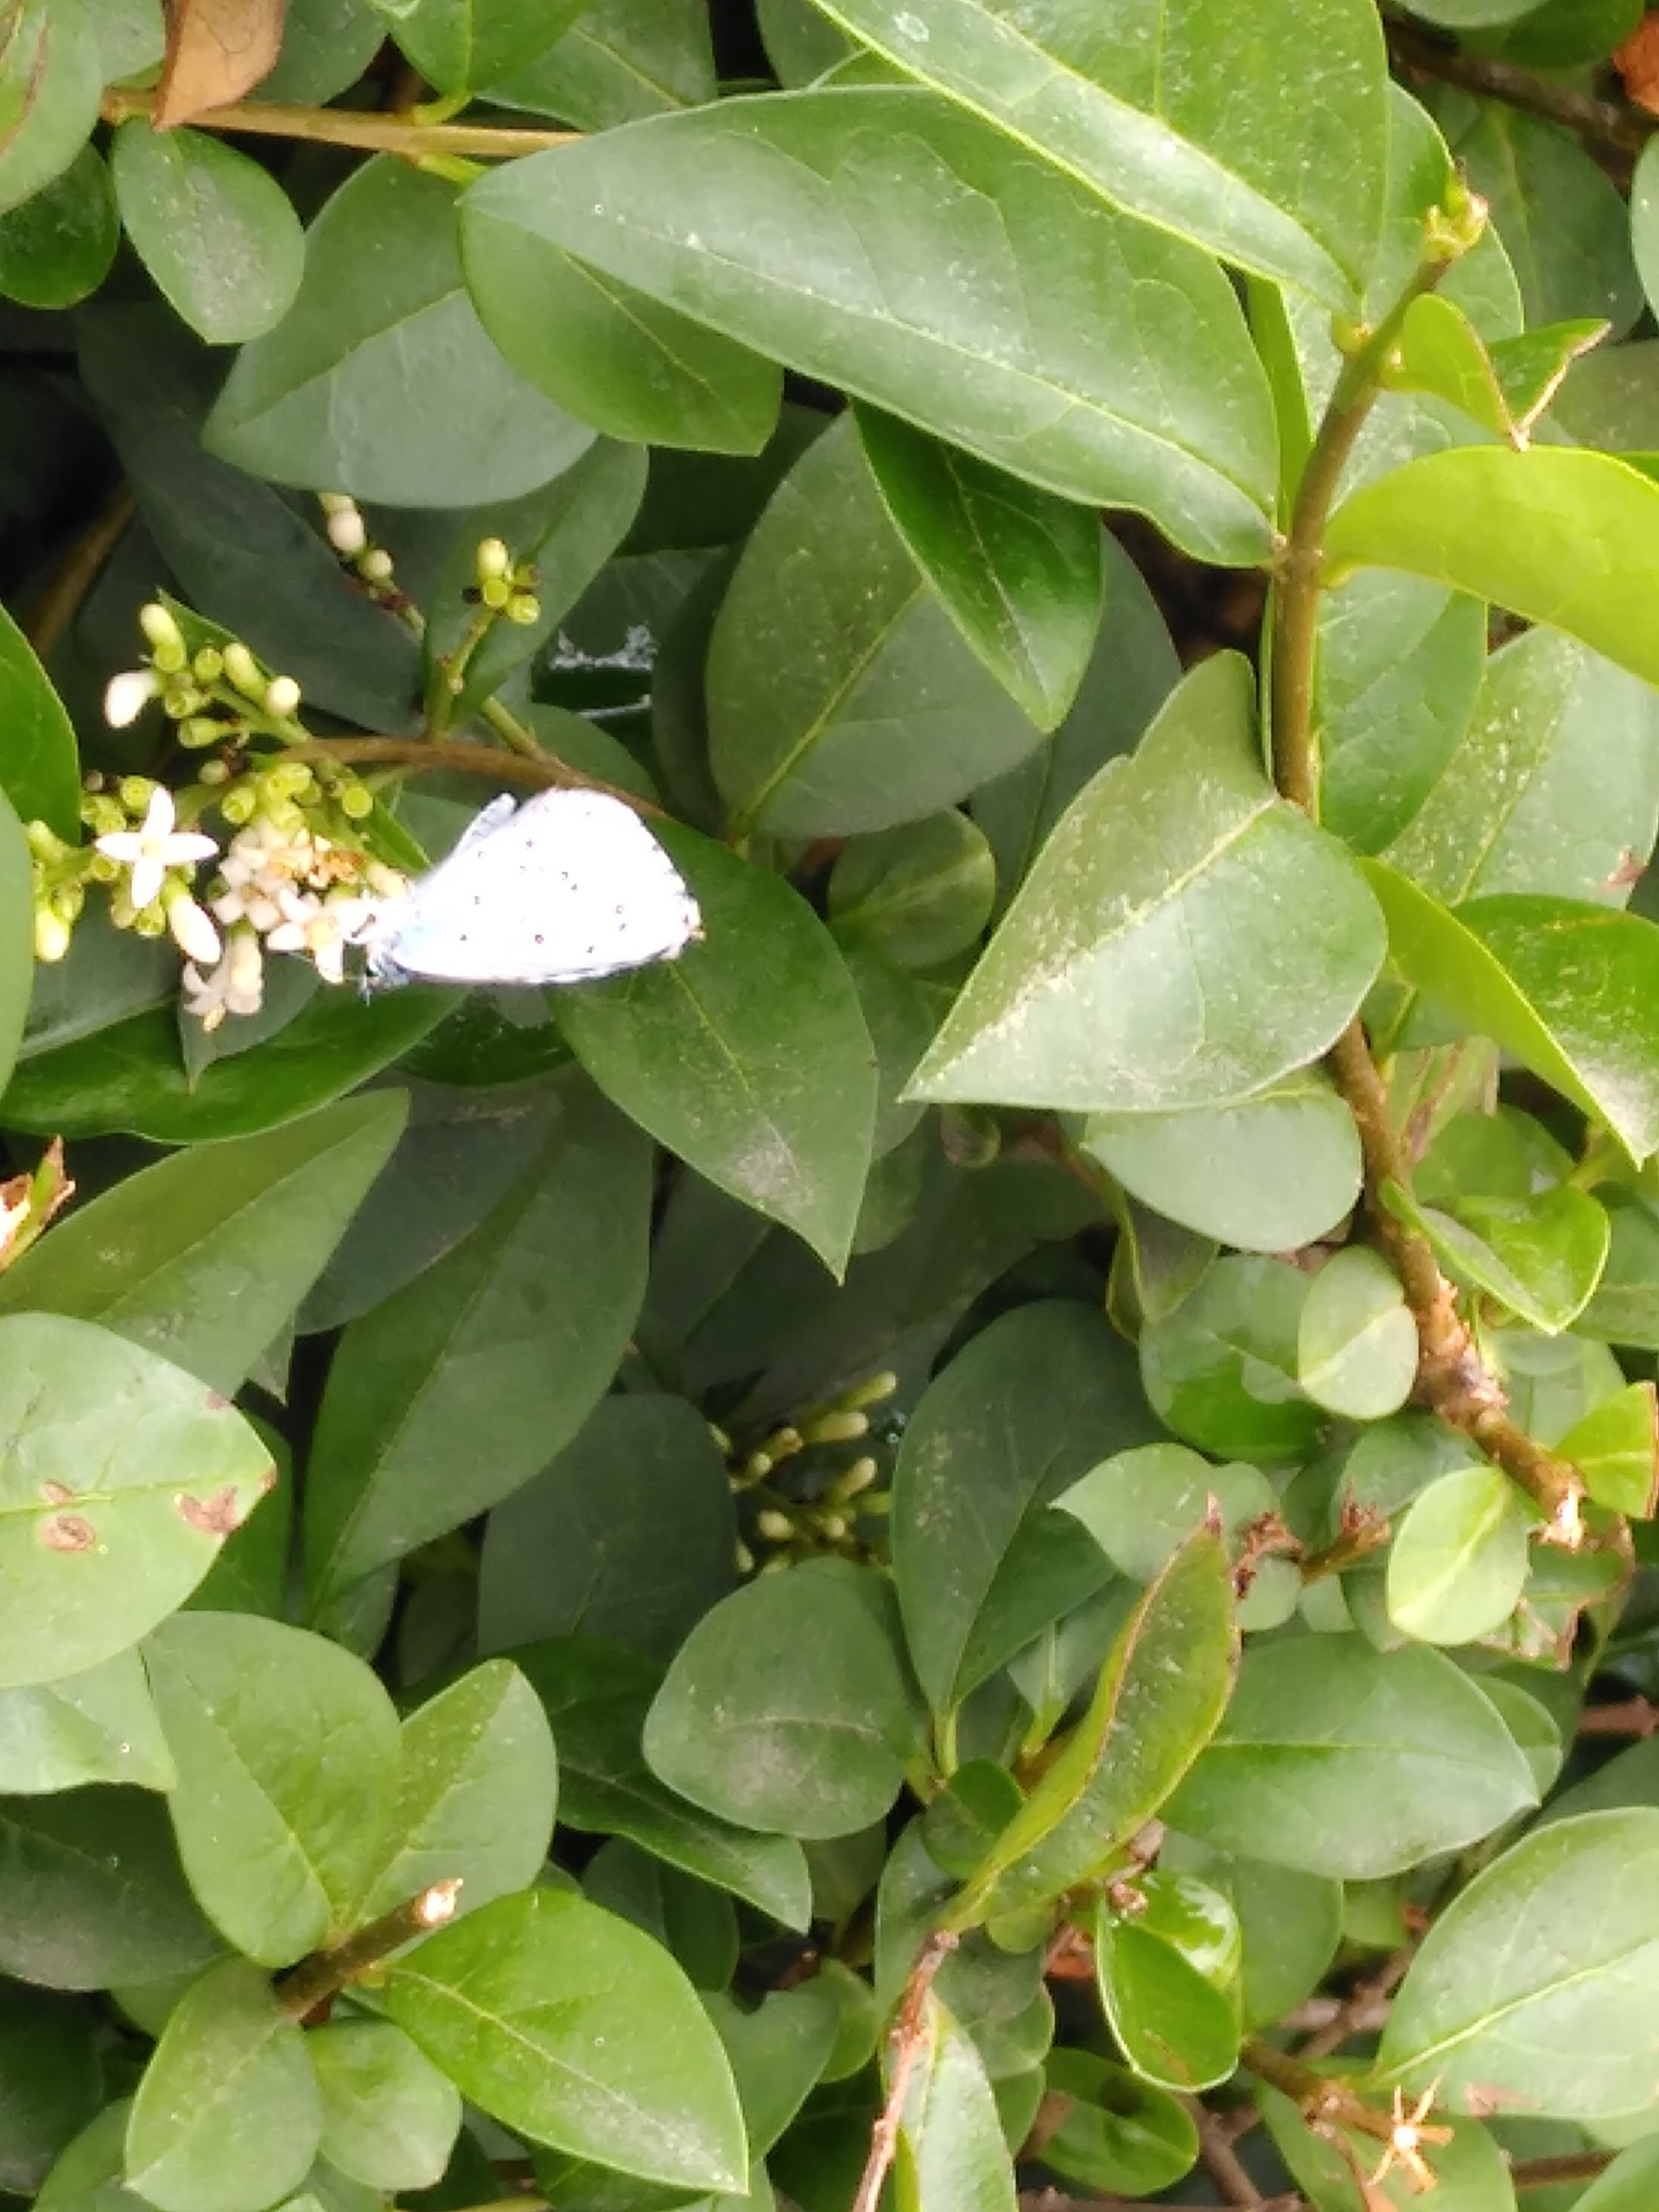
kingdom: Animalia
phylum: Arthropoda
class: Insecta
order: Lepidoptera
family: Lycaenidae
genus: Celastrina
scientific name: Celastrina argiolus
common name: Skovblåfugl
